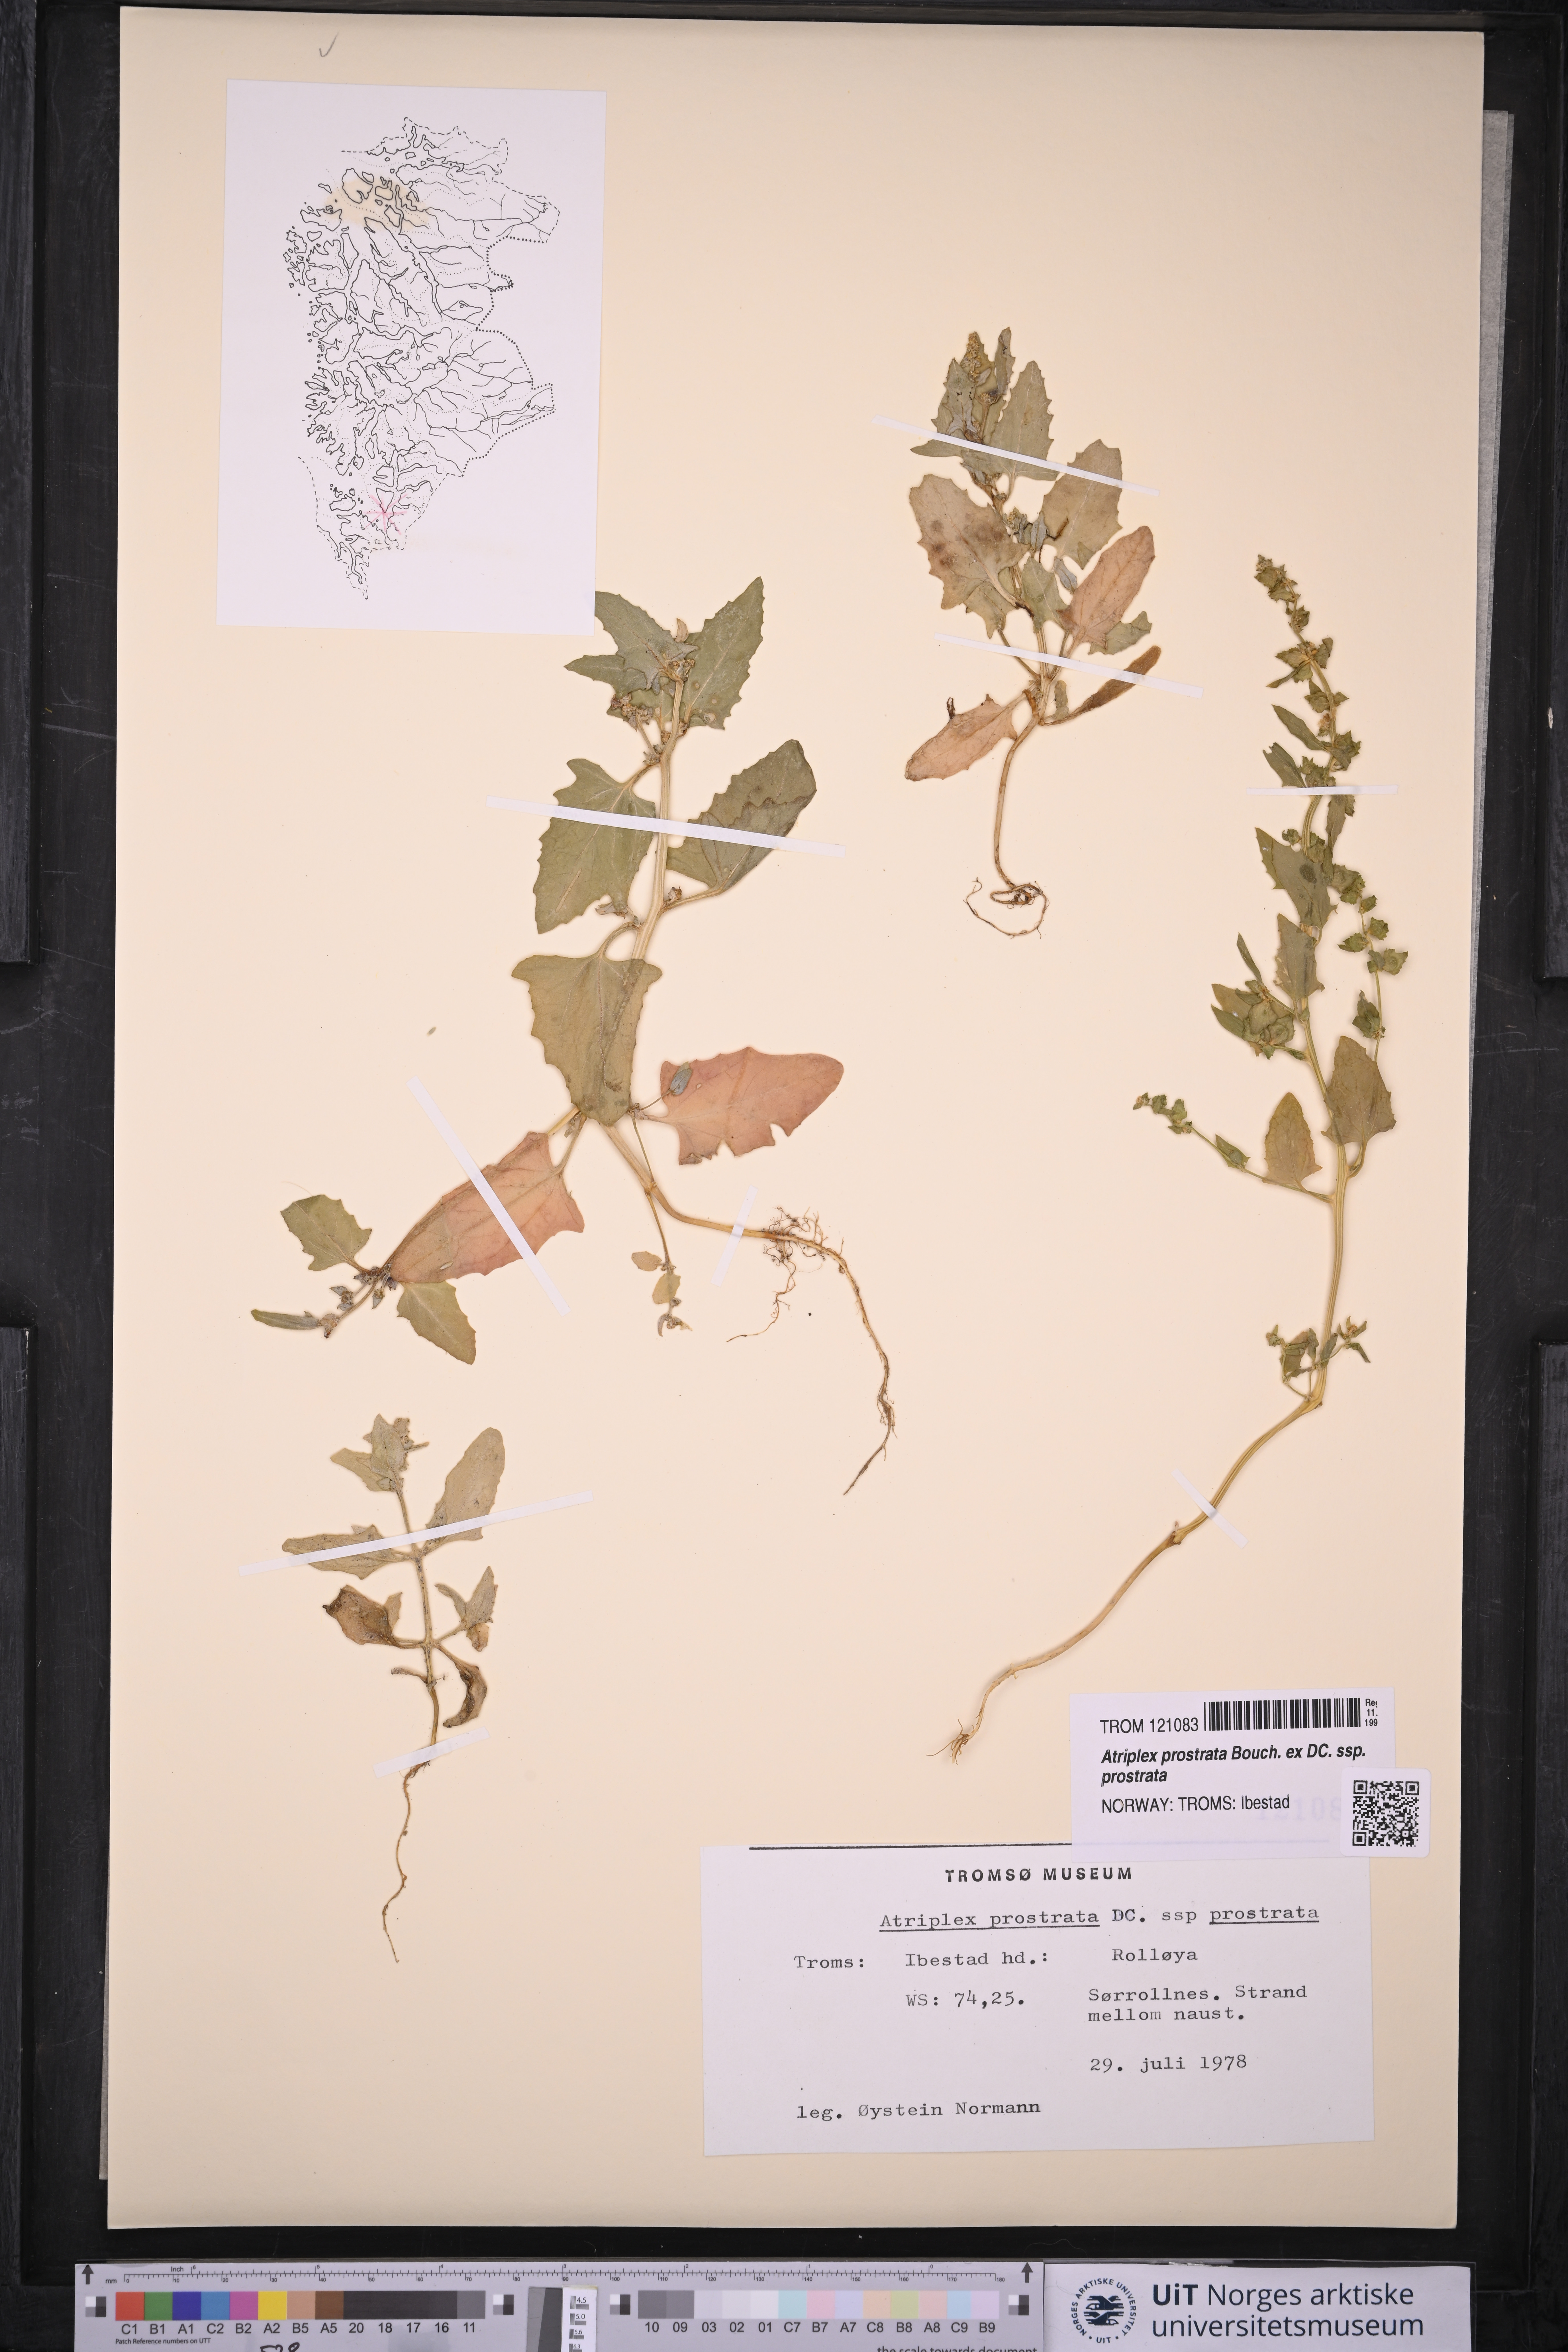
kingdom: Plantae
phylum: Tracheophyta
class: Magnoliopsida
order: Caryophyllales
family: Amaranthaceae
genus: Atriplex
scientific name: Atriplex prostrata
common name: Spear-leaved orache
